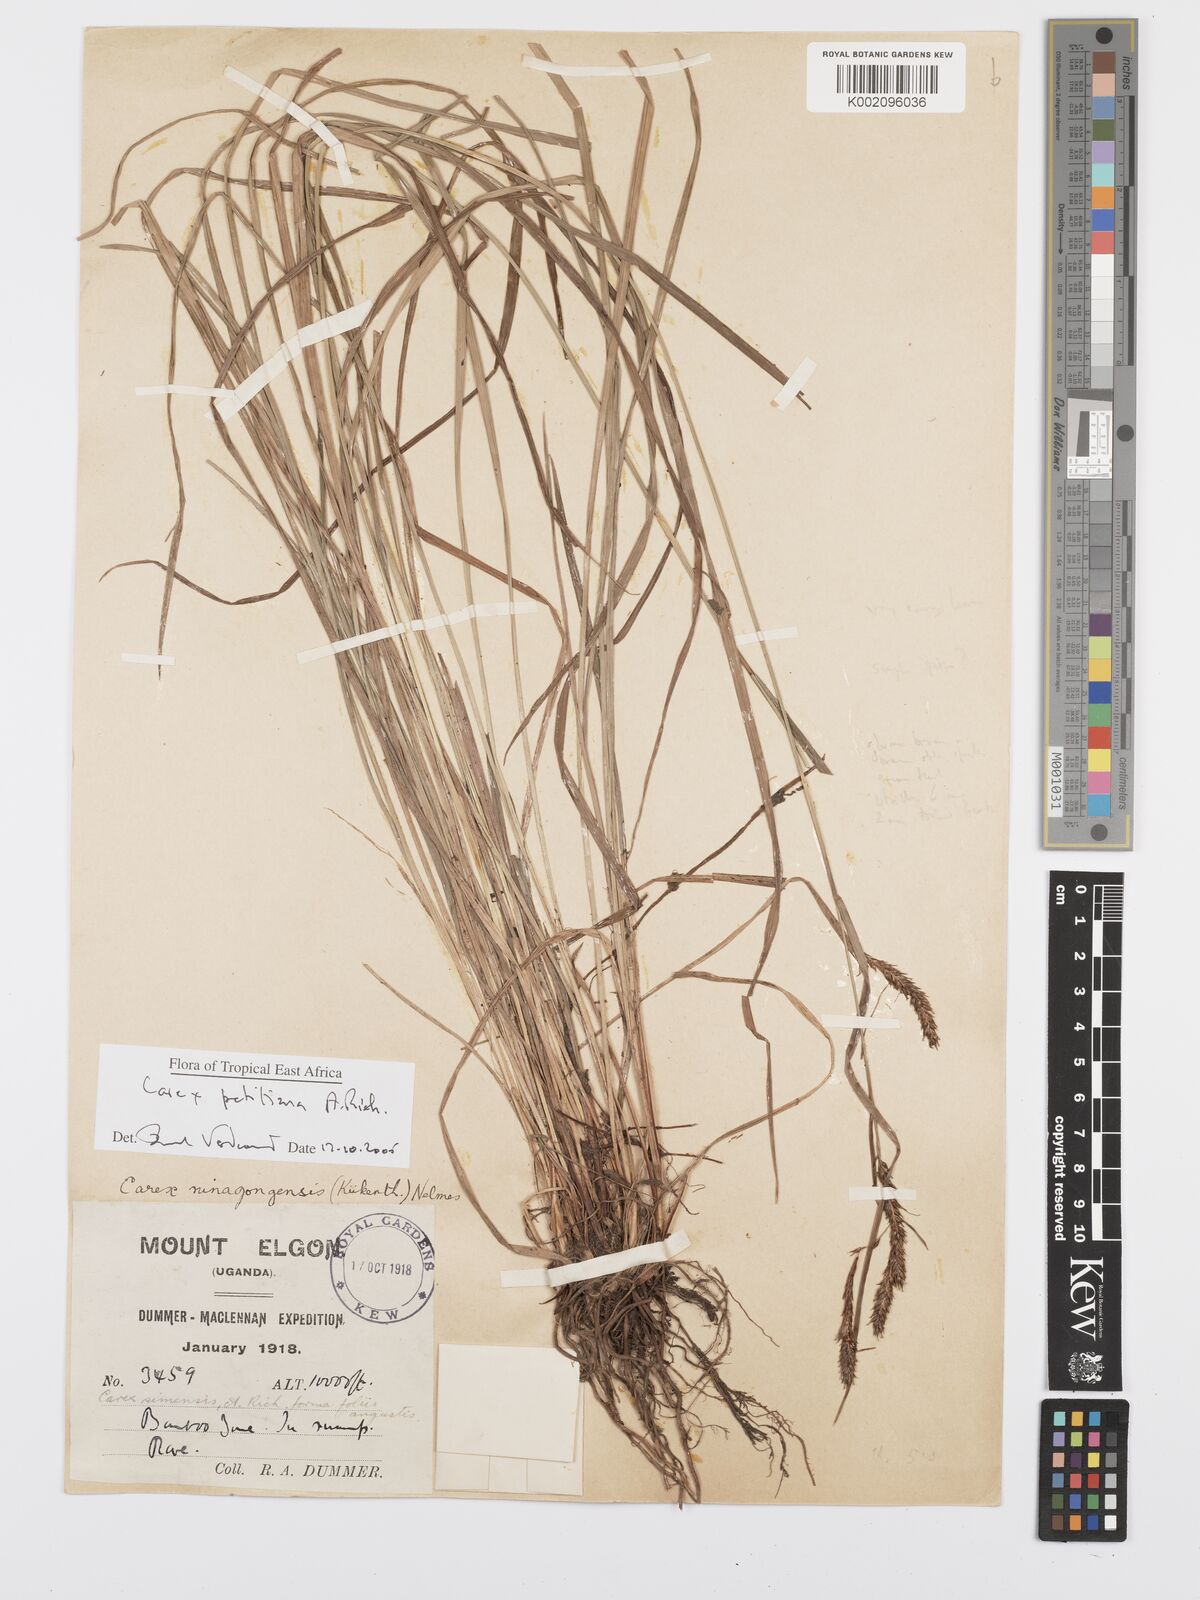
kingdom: Plantae
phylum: Tracheophyta
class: Liliopsida
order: Poales
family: Cyperaceae
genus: Carex
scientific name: Carex mannii
